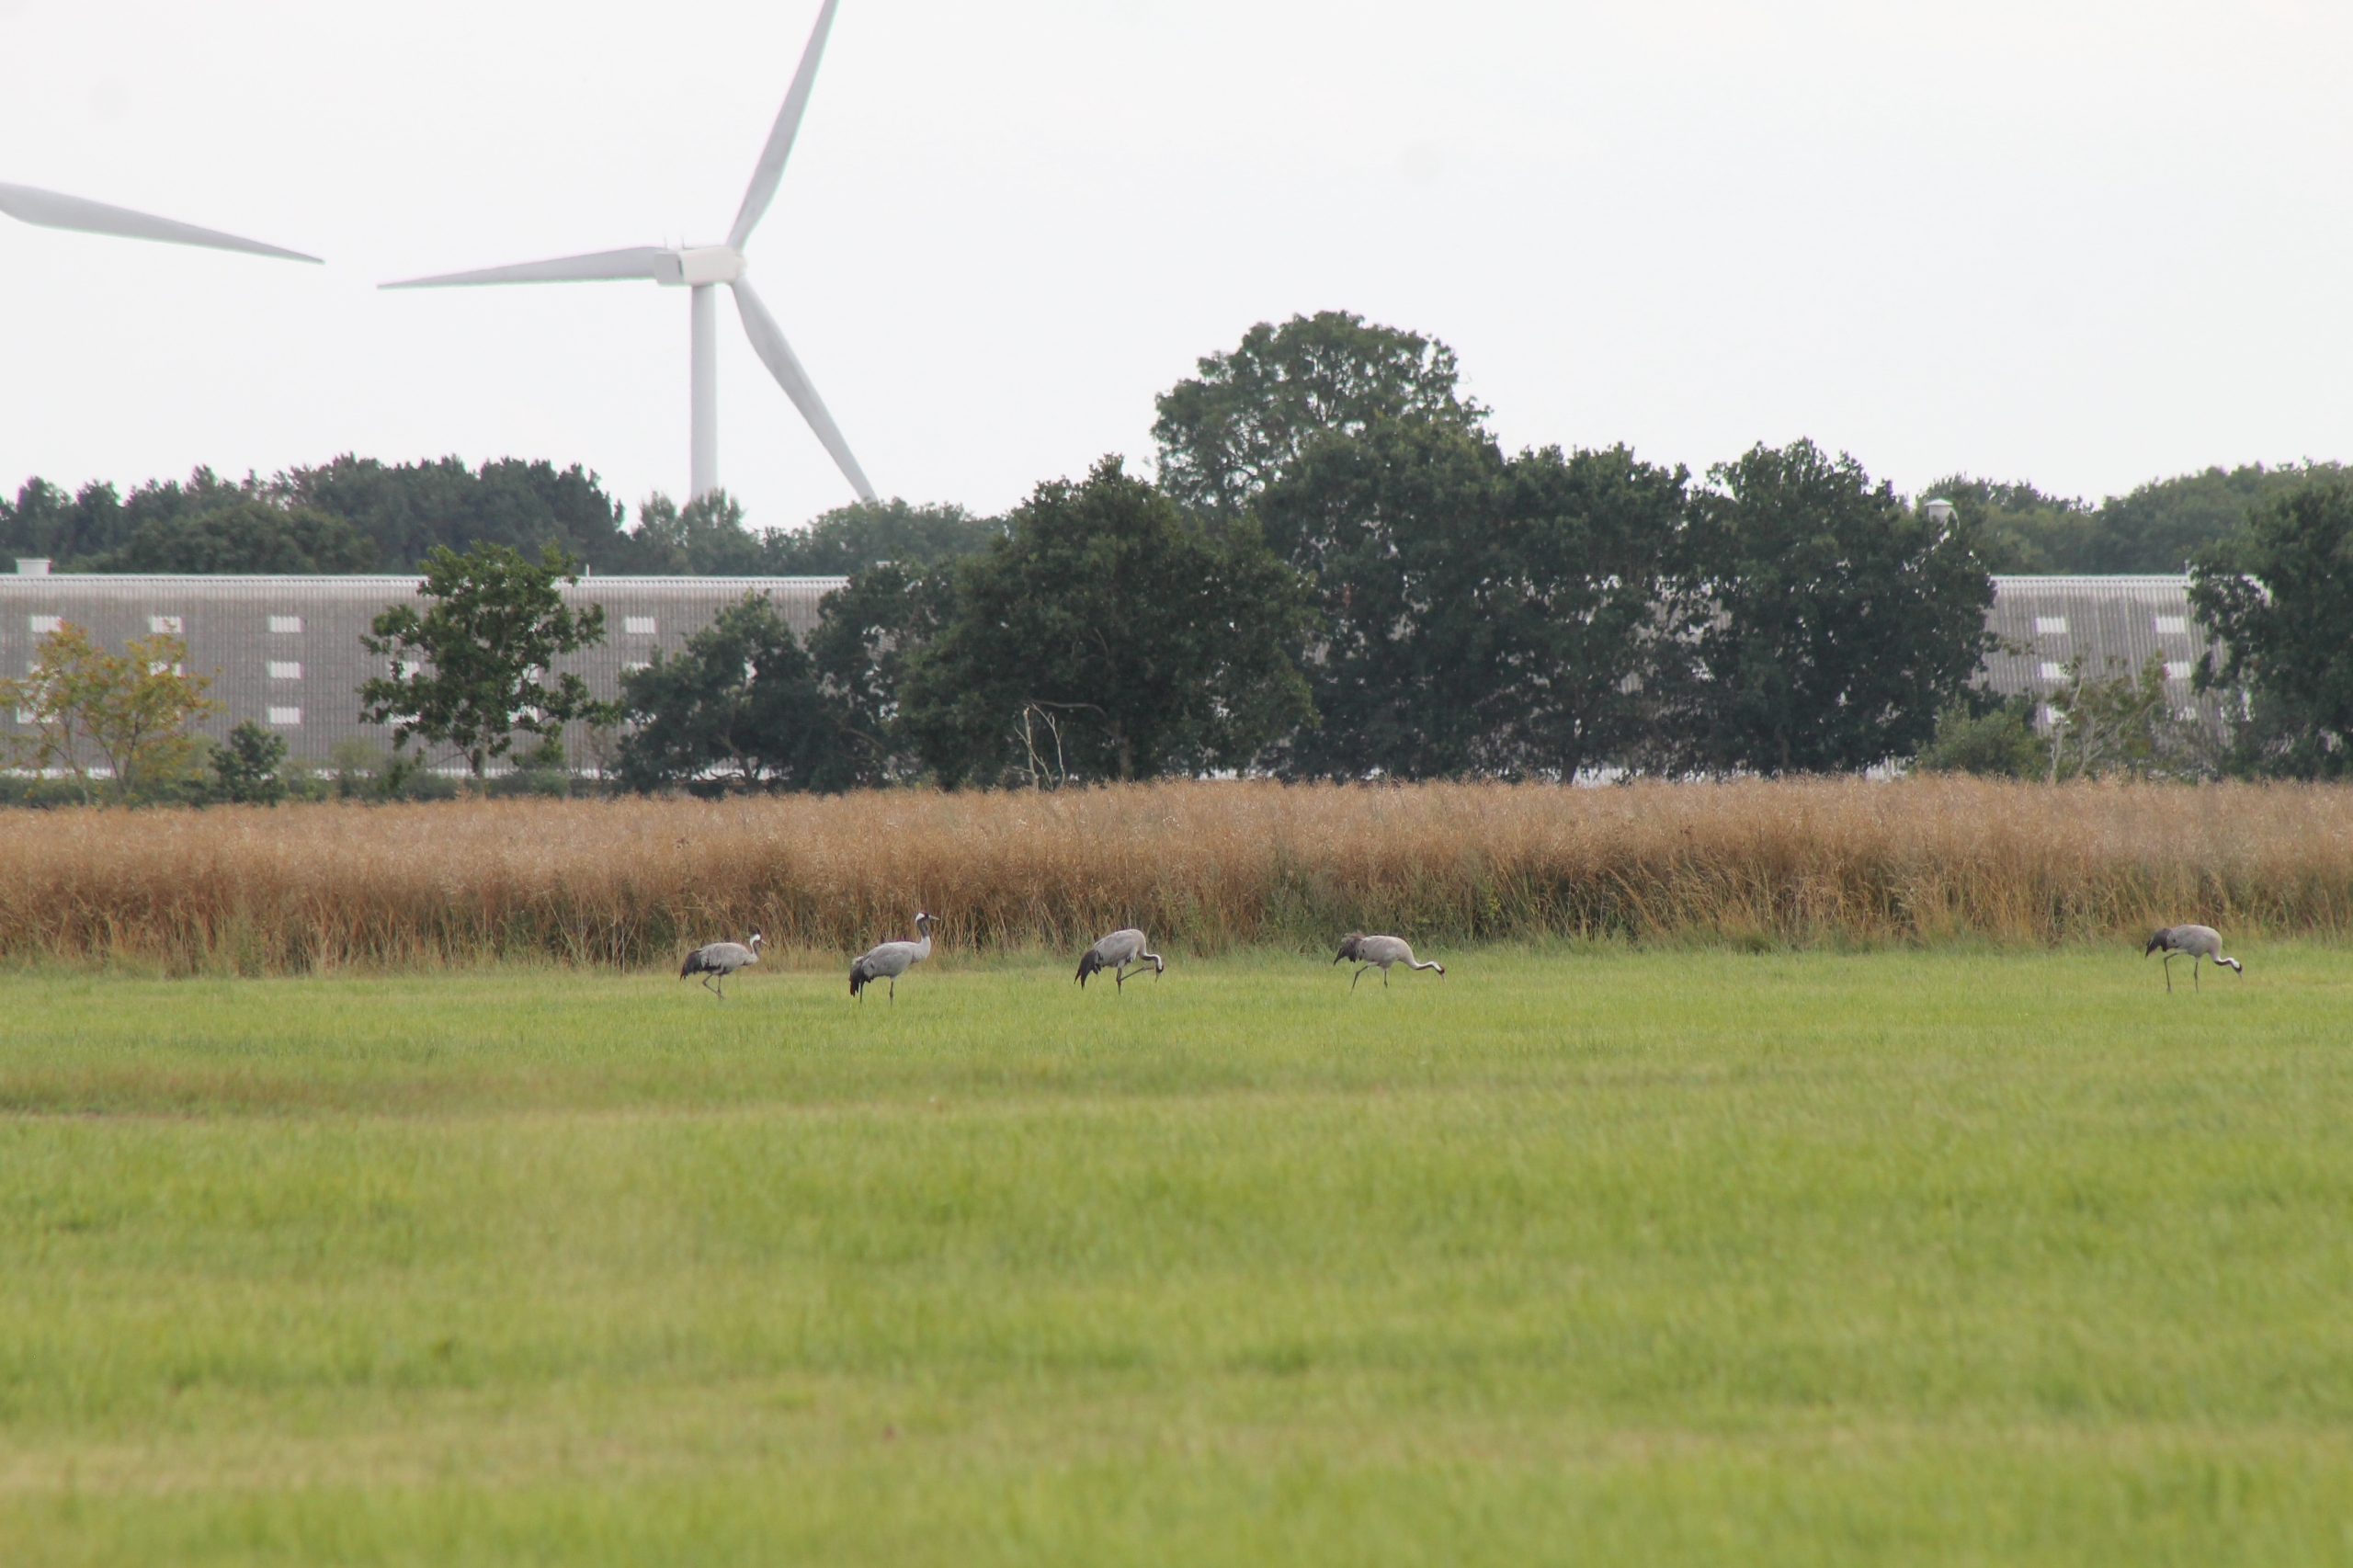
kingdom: Animalia
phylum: Chordata
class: Aves
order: Gruiformes
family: Gruidae
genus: Grus
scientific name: Grus grus
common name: Trane
